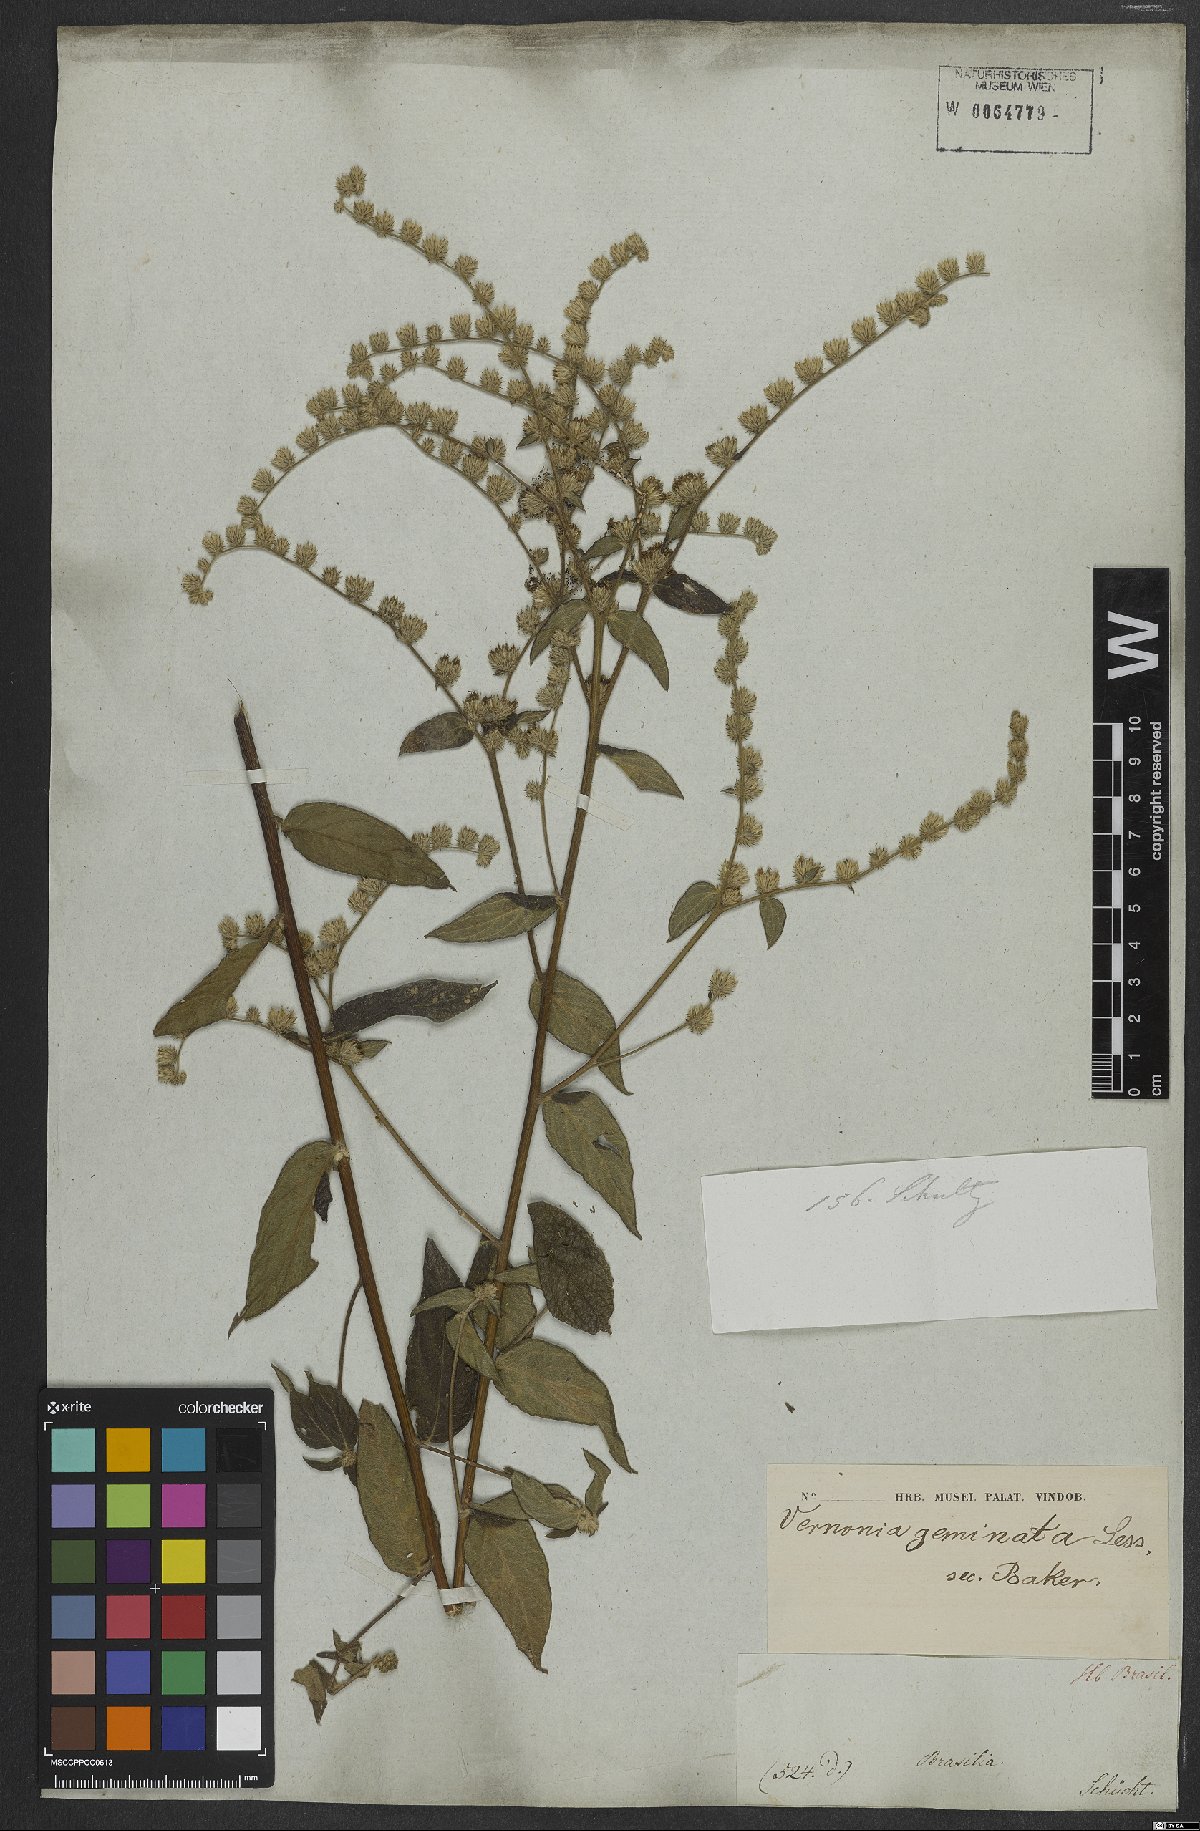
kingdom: Plantae
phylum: Tracheophyta
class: Magnoliopsida
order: Asterales
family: Asteraceae
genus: Lepidaploa
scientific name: Lepidaploa subsquarrosa
